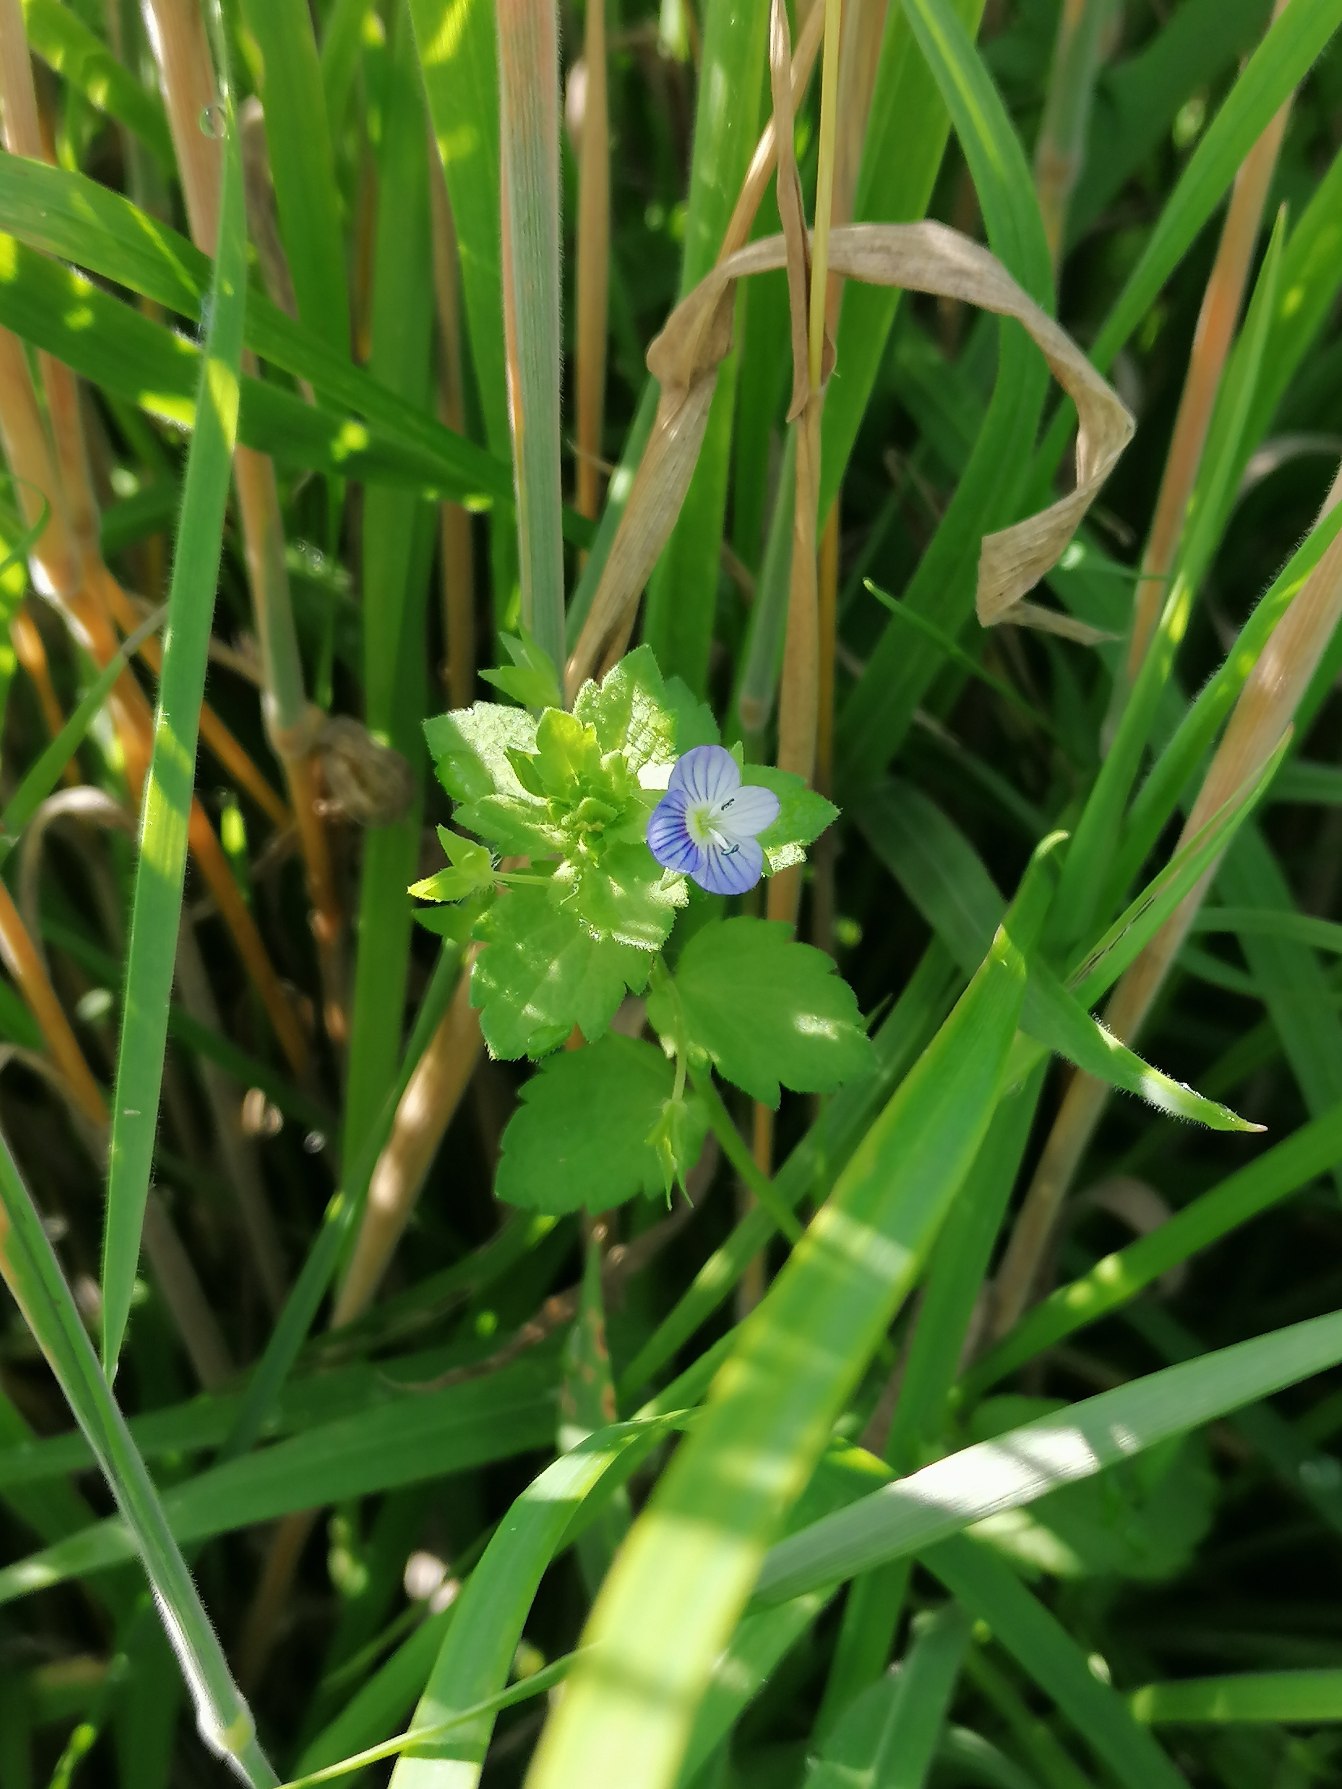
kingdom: Plantae
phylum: Tracheophyta
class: Magnoliopsida
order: Lamiales
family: Plantaginaceae
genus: Veronica
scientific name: Veronica persica
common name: Storkronet ærenpris
